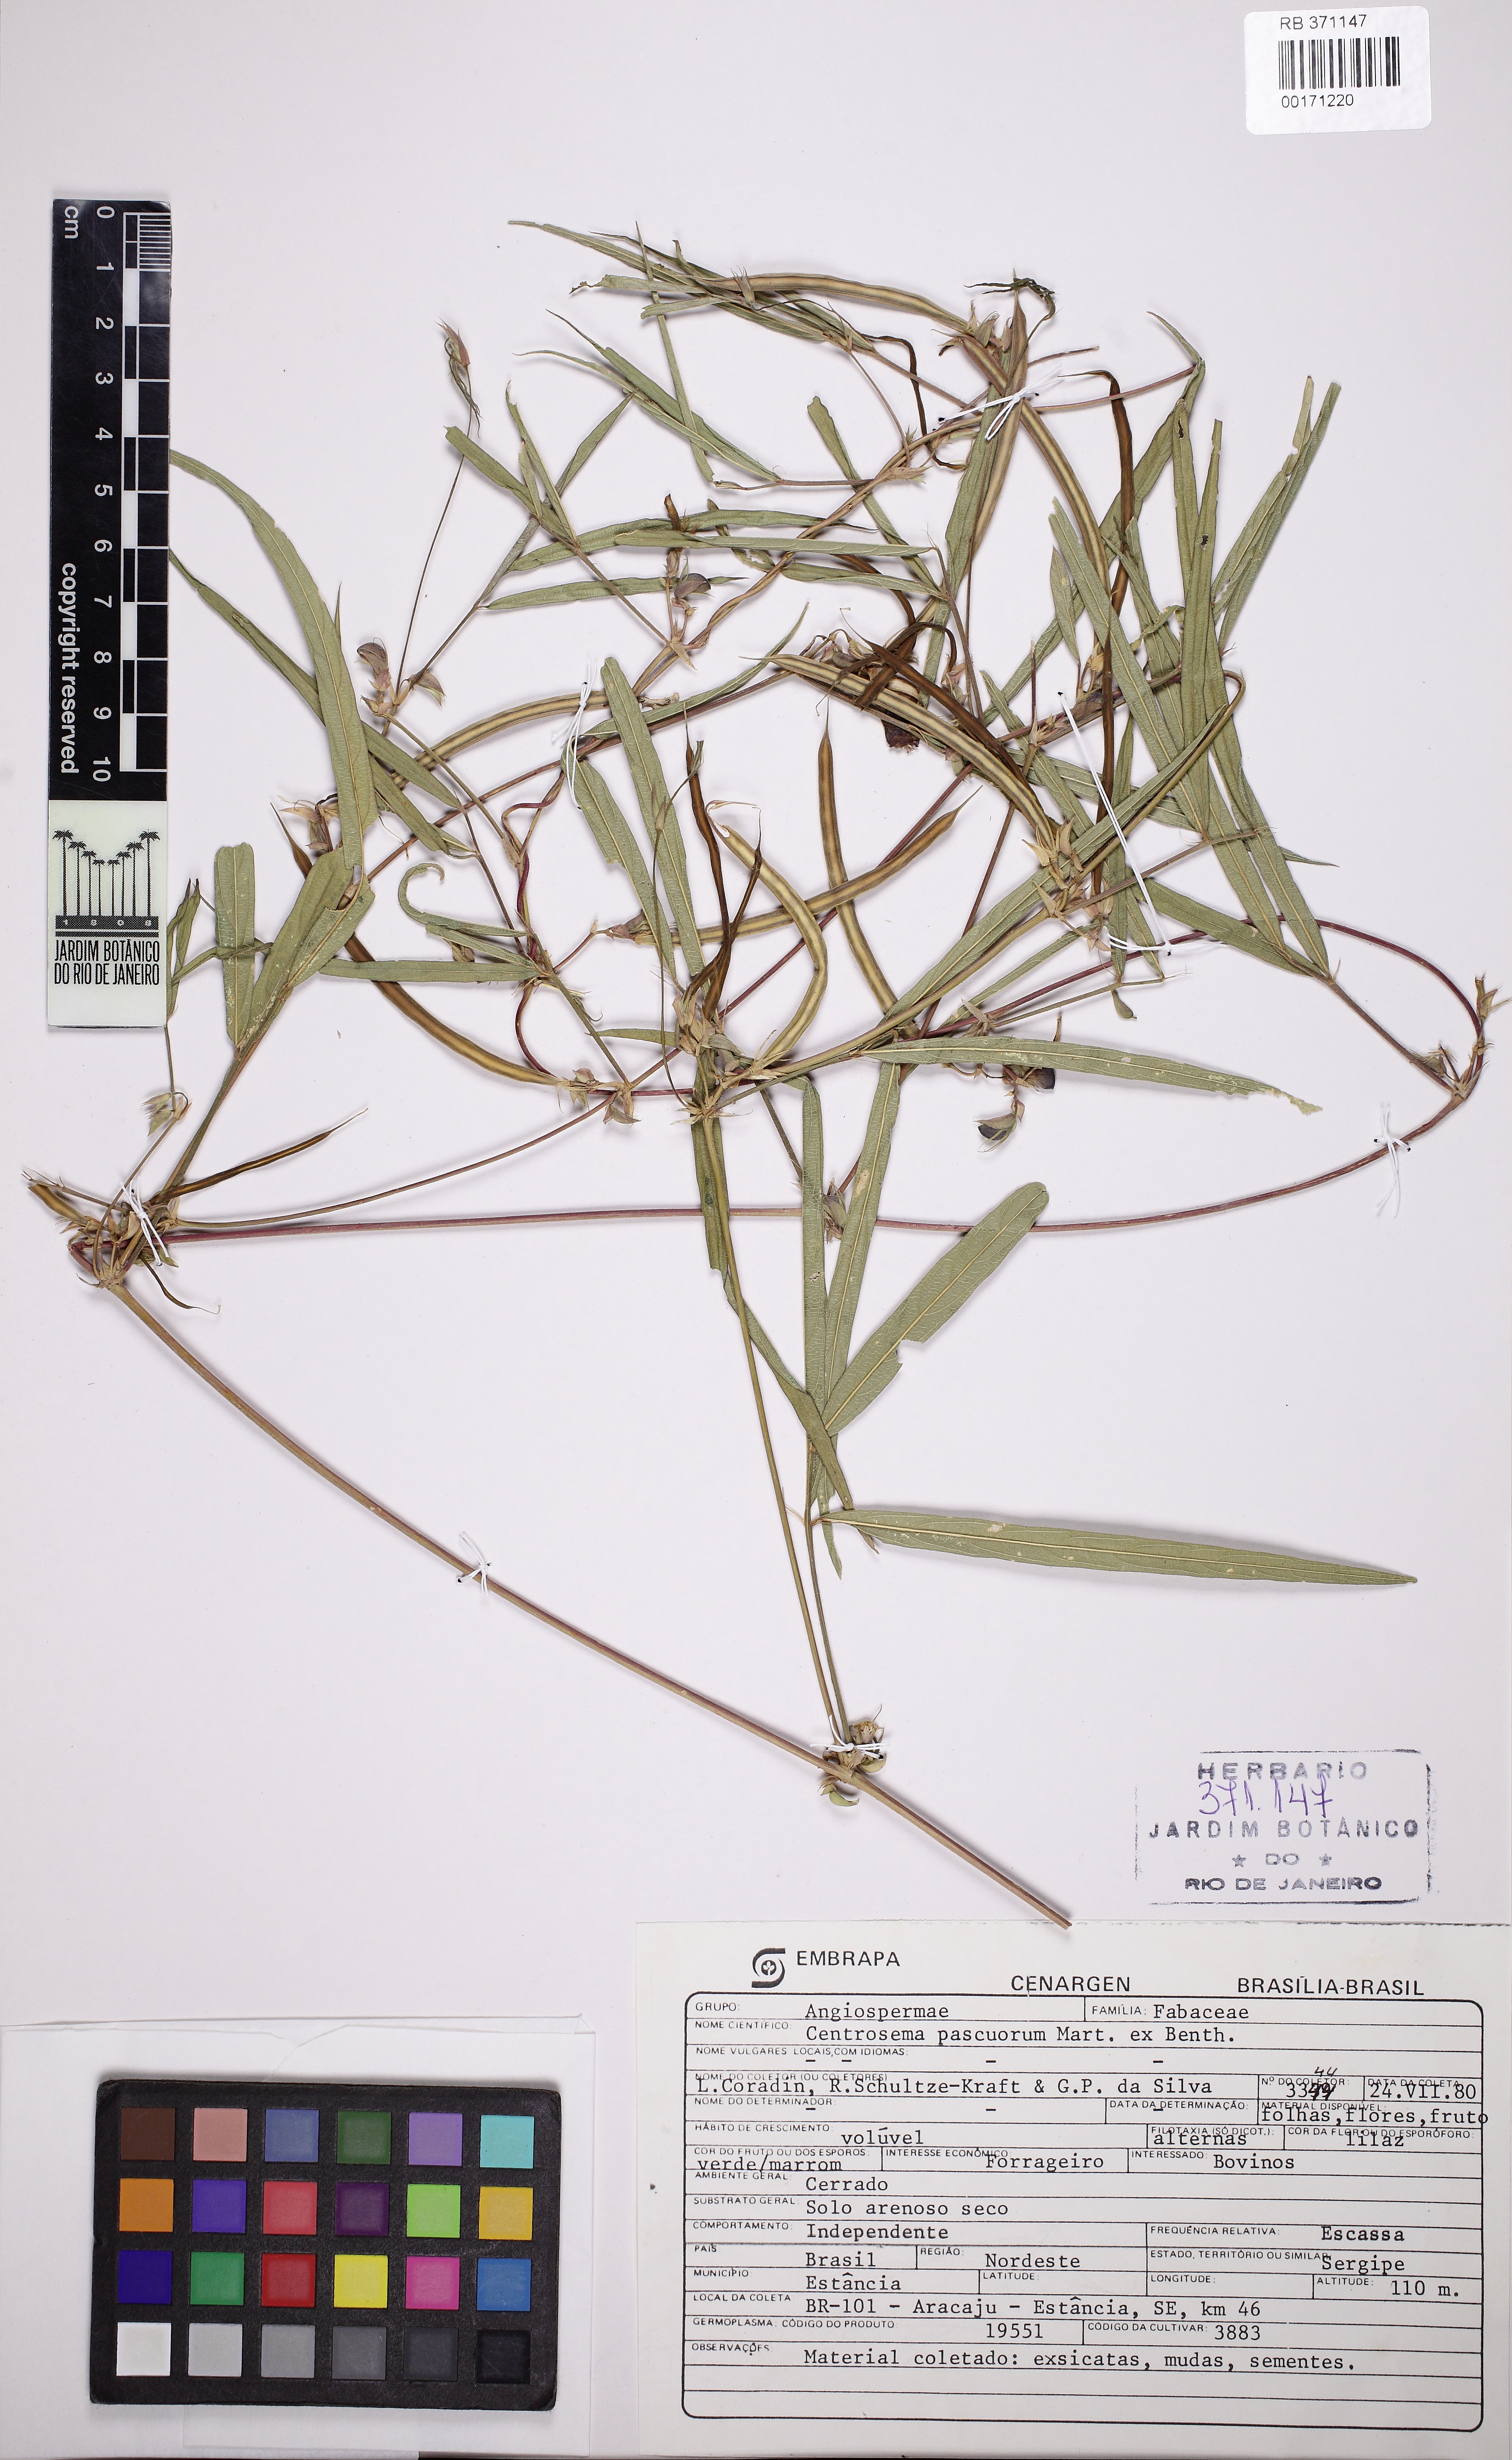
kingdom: Plantae
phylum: Tracheophyta
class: Magnoliopsida
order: Fabales
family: Fabaceae
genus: Centrosema
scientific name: Centrosema pascuorum
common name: Centurion
